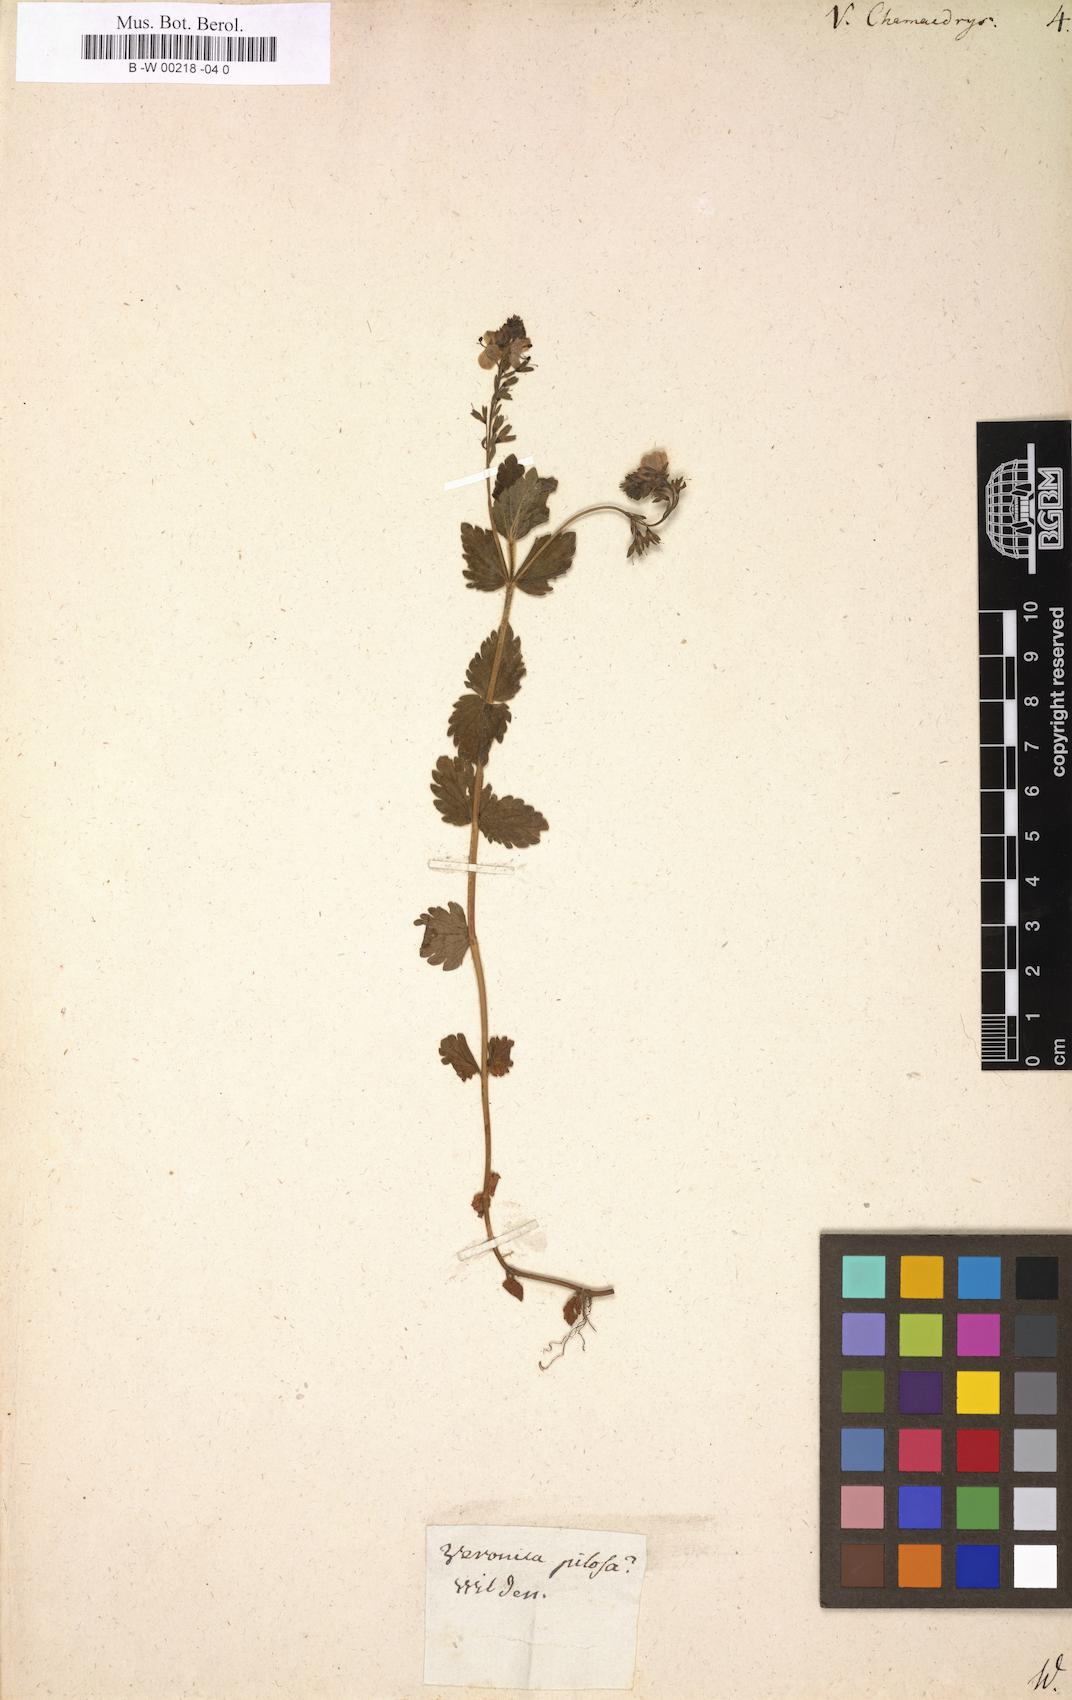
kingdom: Plantae
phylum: Tracheophyta
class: Magnoliopsida
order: Lamiales
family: Plantaginaceae
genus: Veronica
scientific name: Veronica chamaedrys
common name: Germander speedwell
